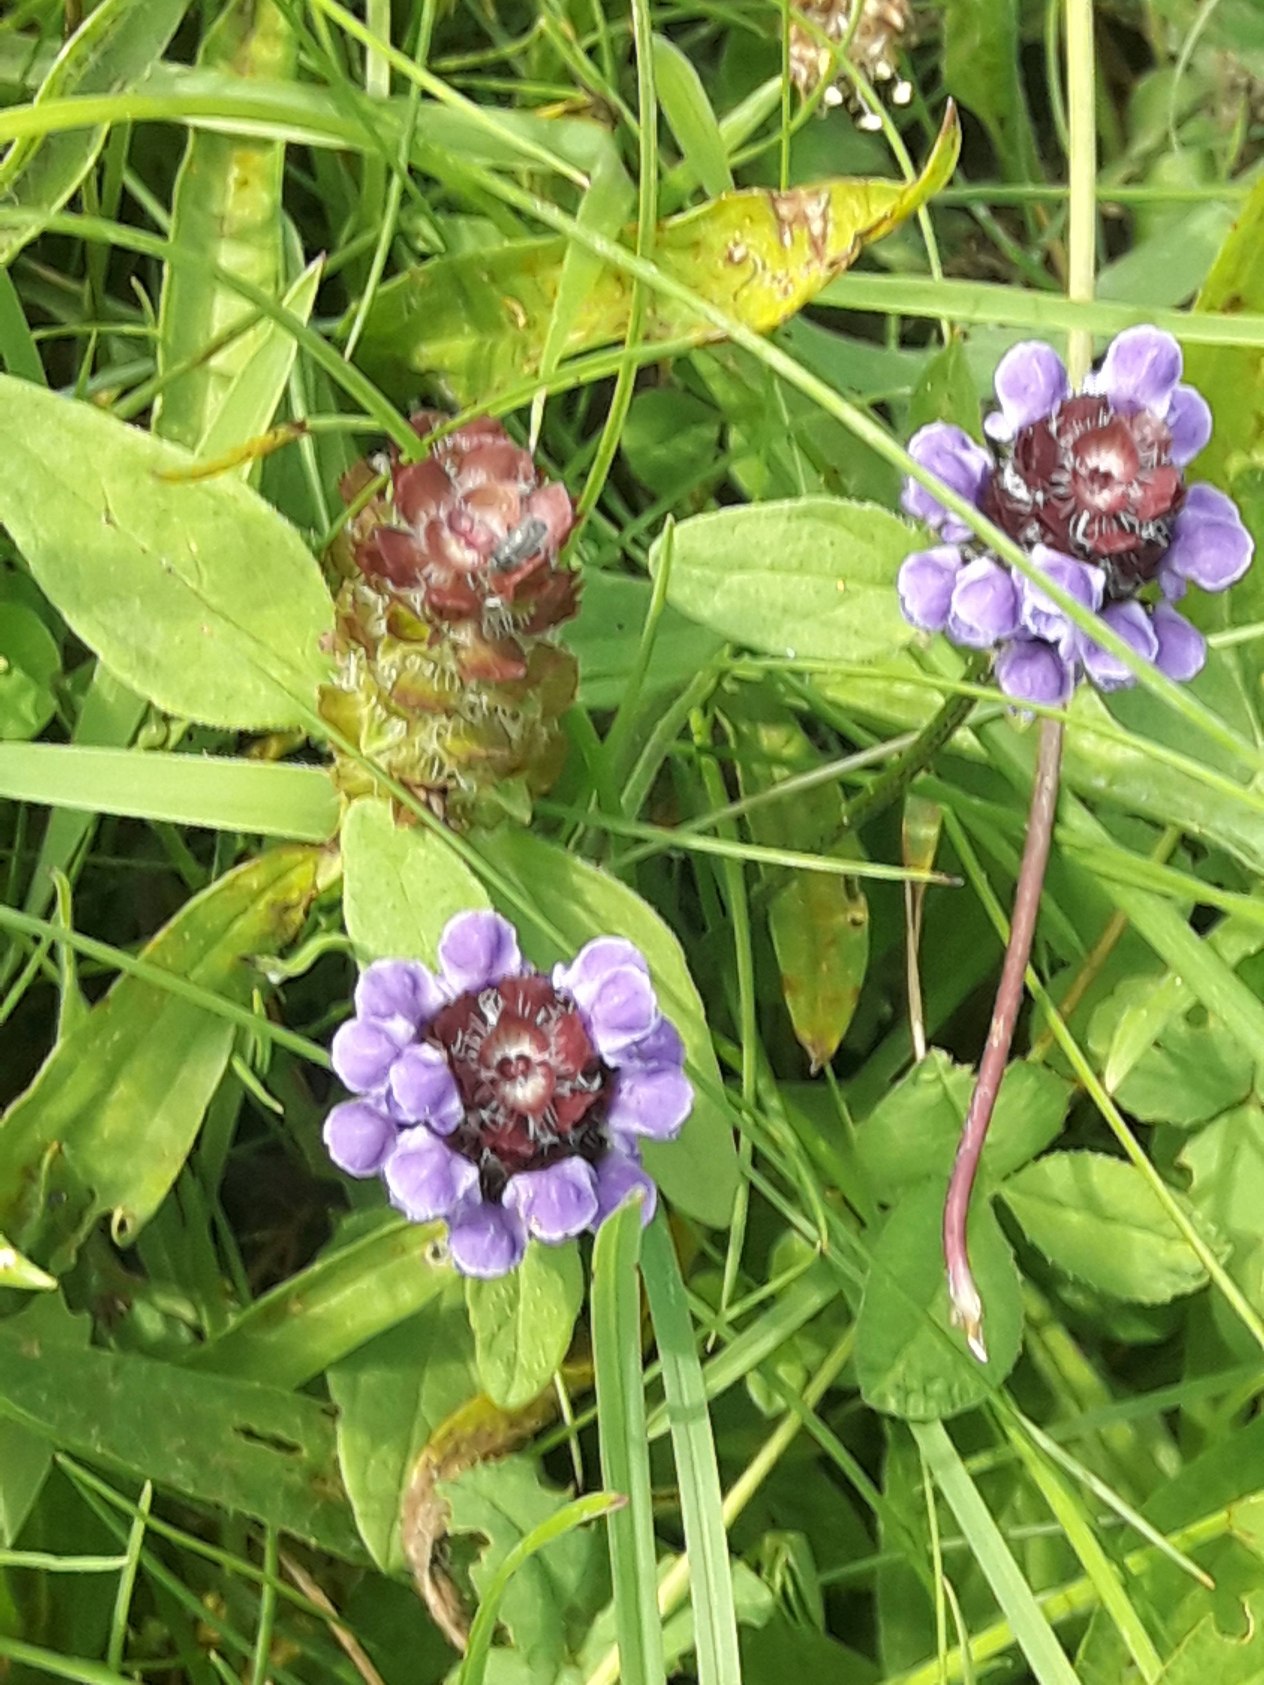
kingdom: Plantae
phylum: Tracheophyta
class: Magnoliopsida
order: Lamiales
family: Lamiaceae
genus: Prunella
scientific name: Prunella vulgaris
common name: Almindelig brunelle
